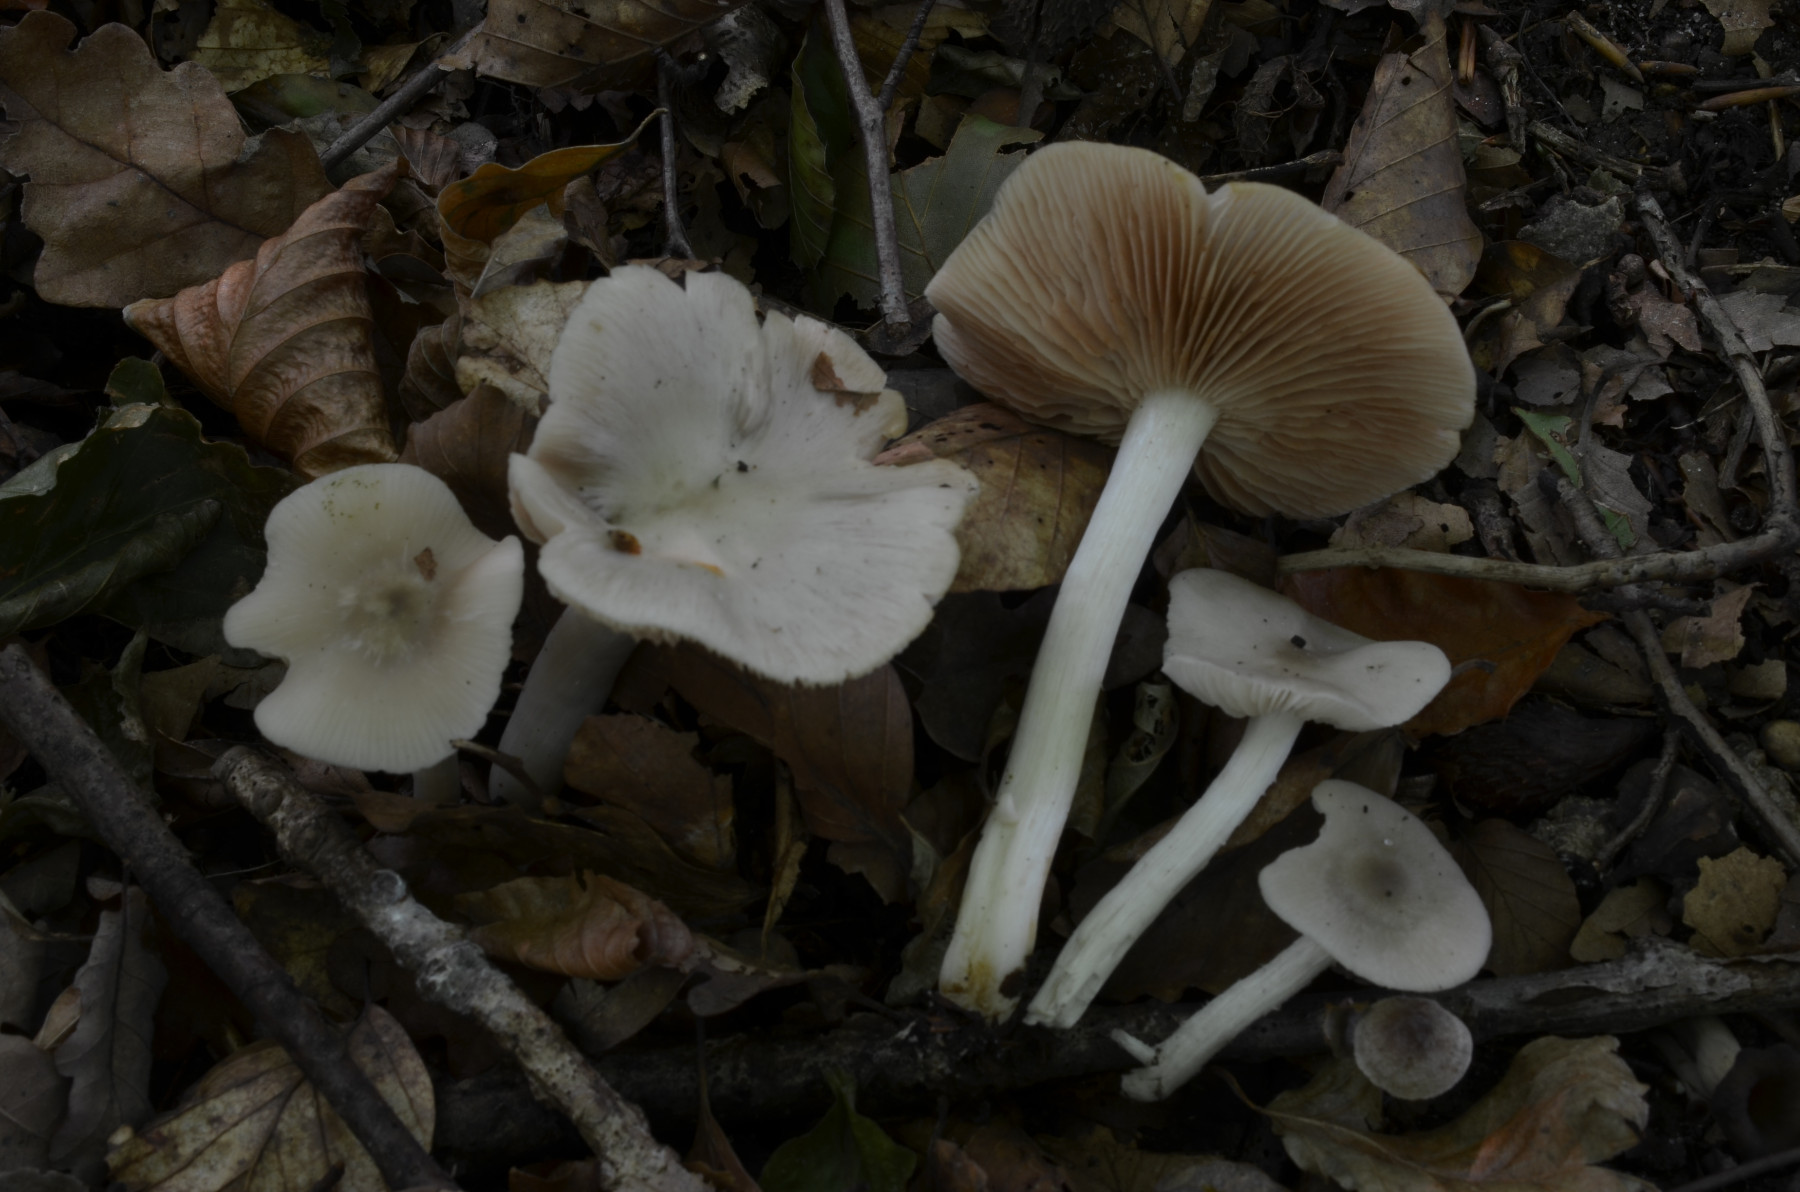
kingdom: Fungi
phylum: Basidiomycota
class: Agaricomycetes
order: Agaricales
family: Entolomataceae
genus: Entoloma
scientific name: Entoloma noordeloosii
